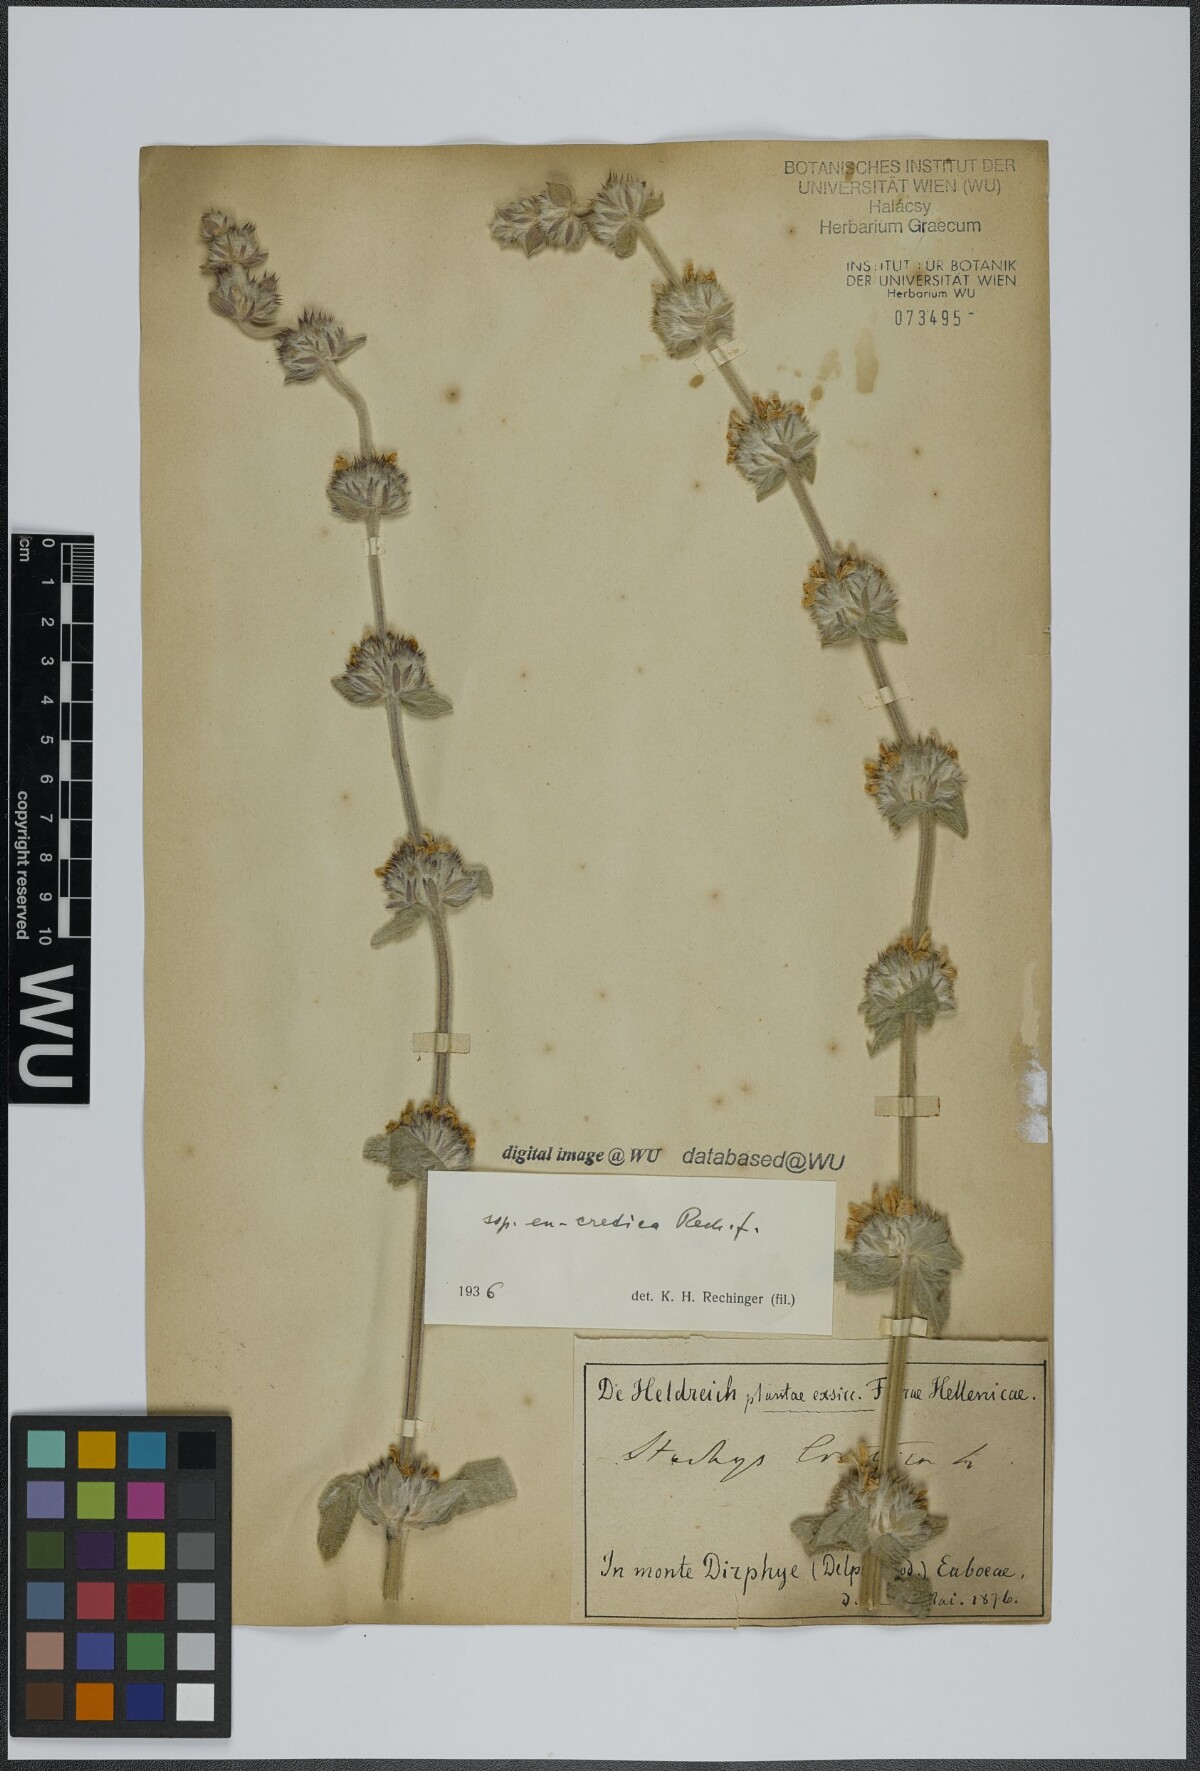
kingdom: Plantae
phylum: Tracheophyta
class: Magnoliopsida
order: Lamiales
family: Lamiaceae
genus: Stachys
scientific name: Stachys cretica
